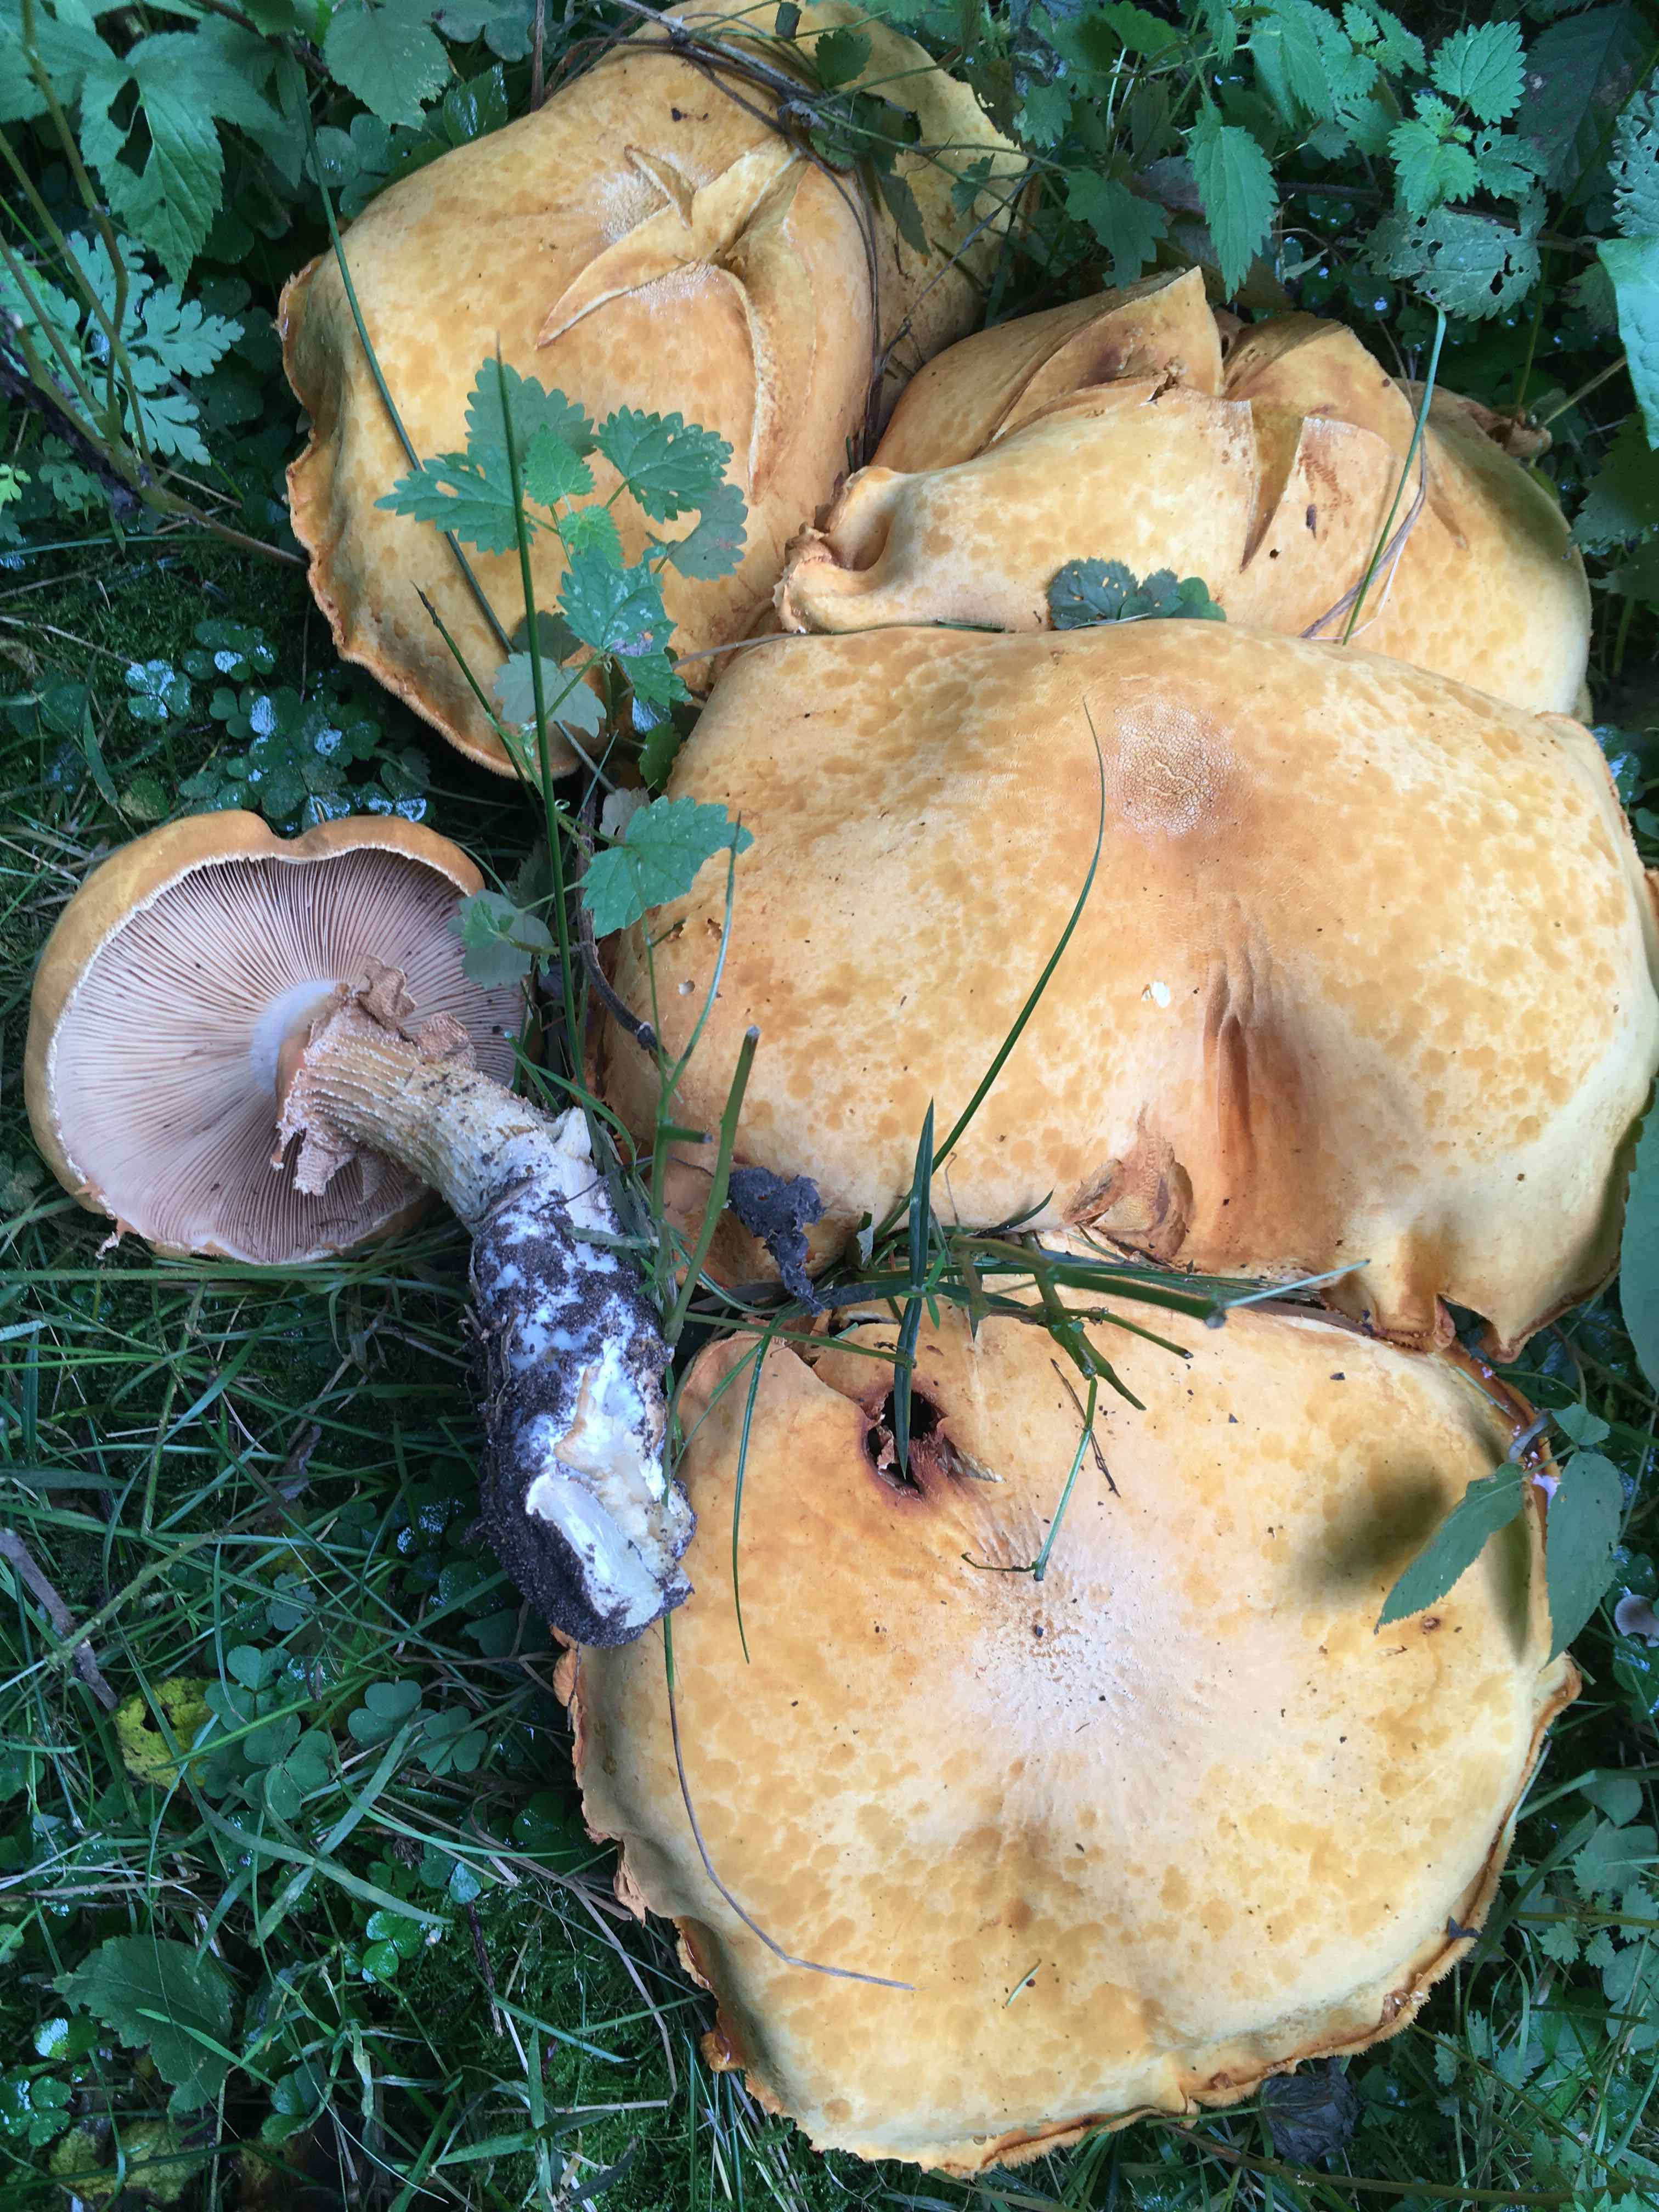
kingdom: Fungi
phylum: Basidiomycota
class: Agaricomycetes
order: Agaricales
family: Tricholomataceae
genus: Phaeolepiota
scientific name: Phaeolepiota aurea
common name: gyldenhat
